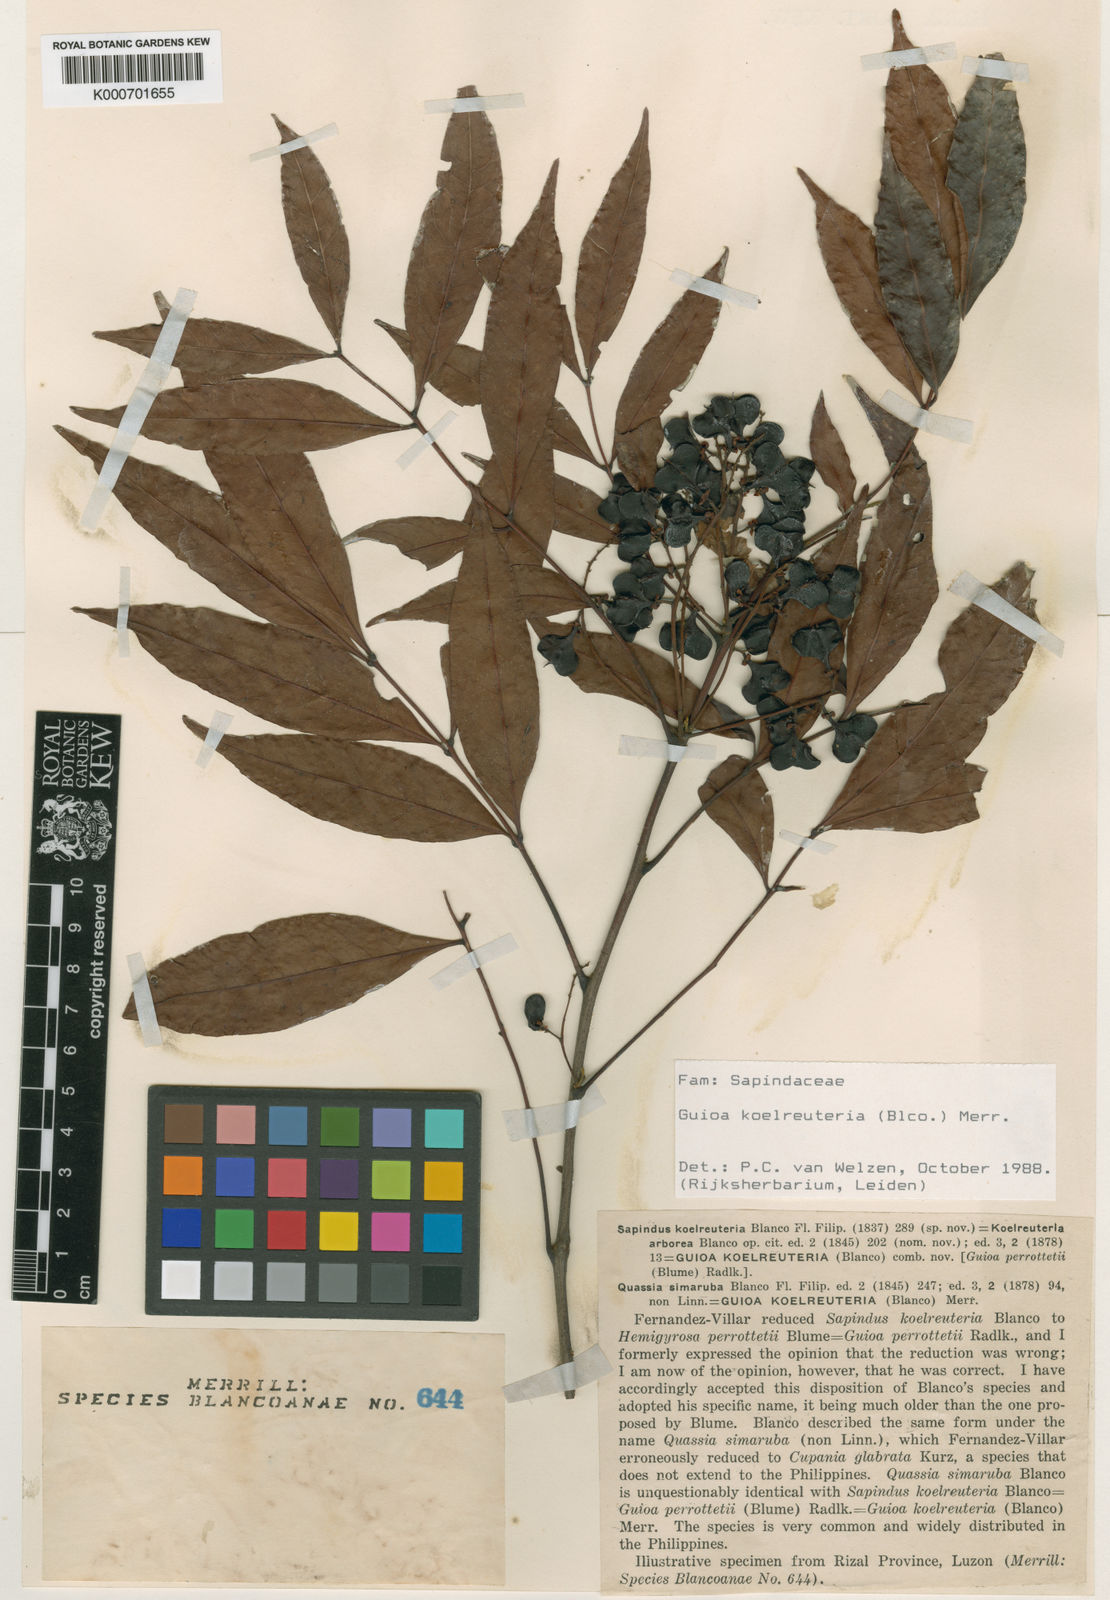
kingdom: Plantae
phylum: Tracheophyta
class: Magnoliopsida
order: Sapindales
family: Sapindaceae
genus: Guioa
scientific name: Guioa koelreuteria
